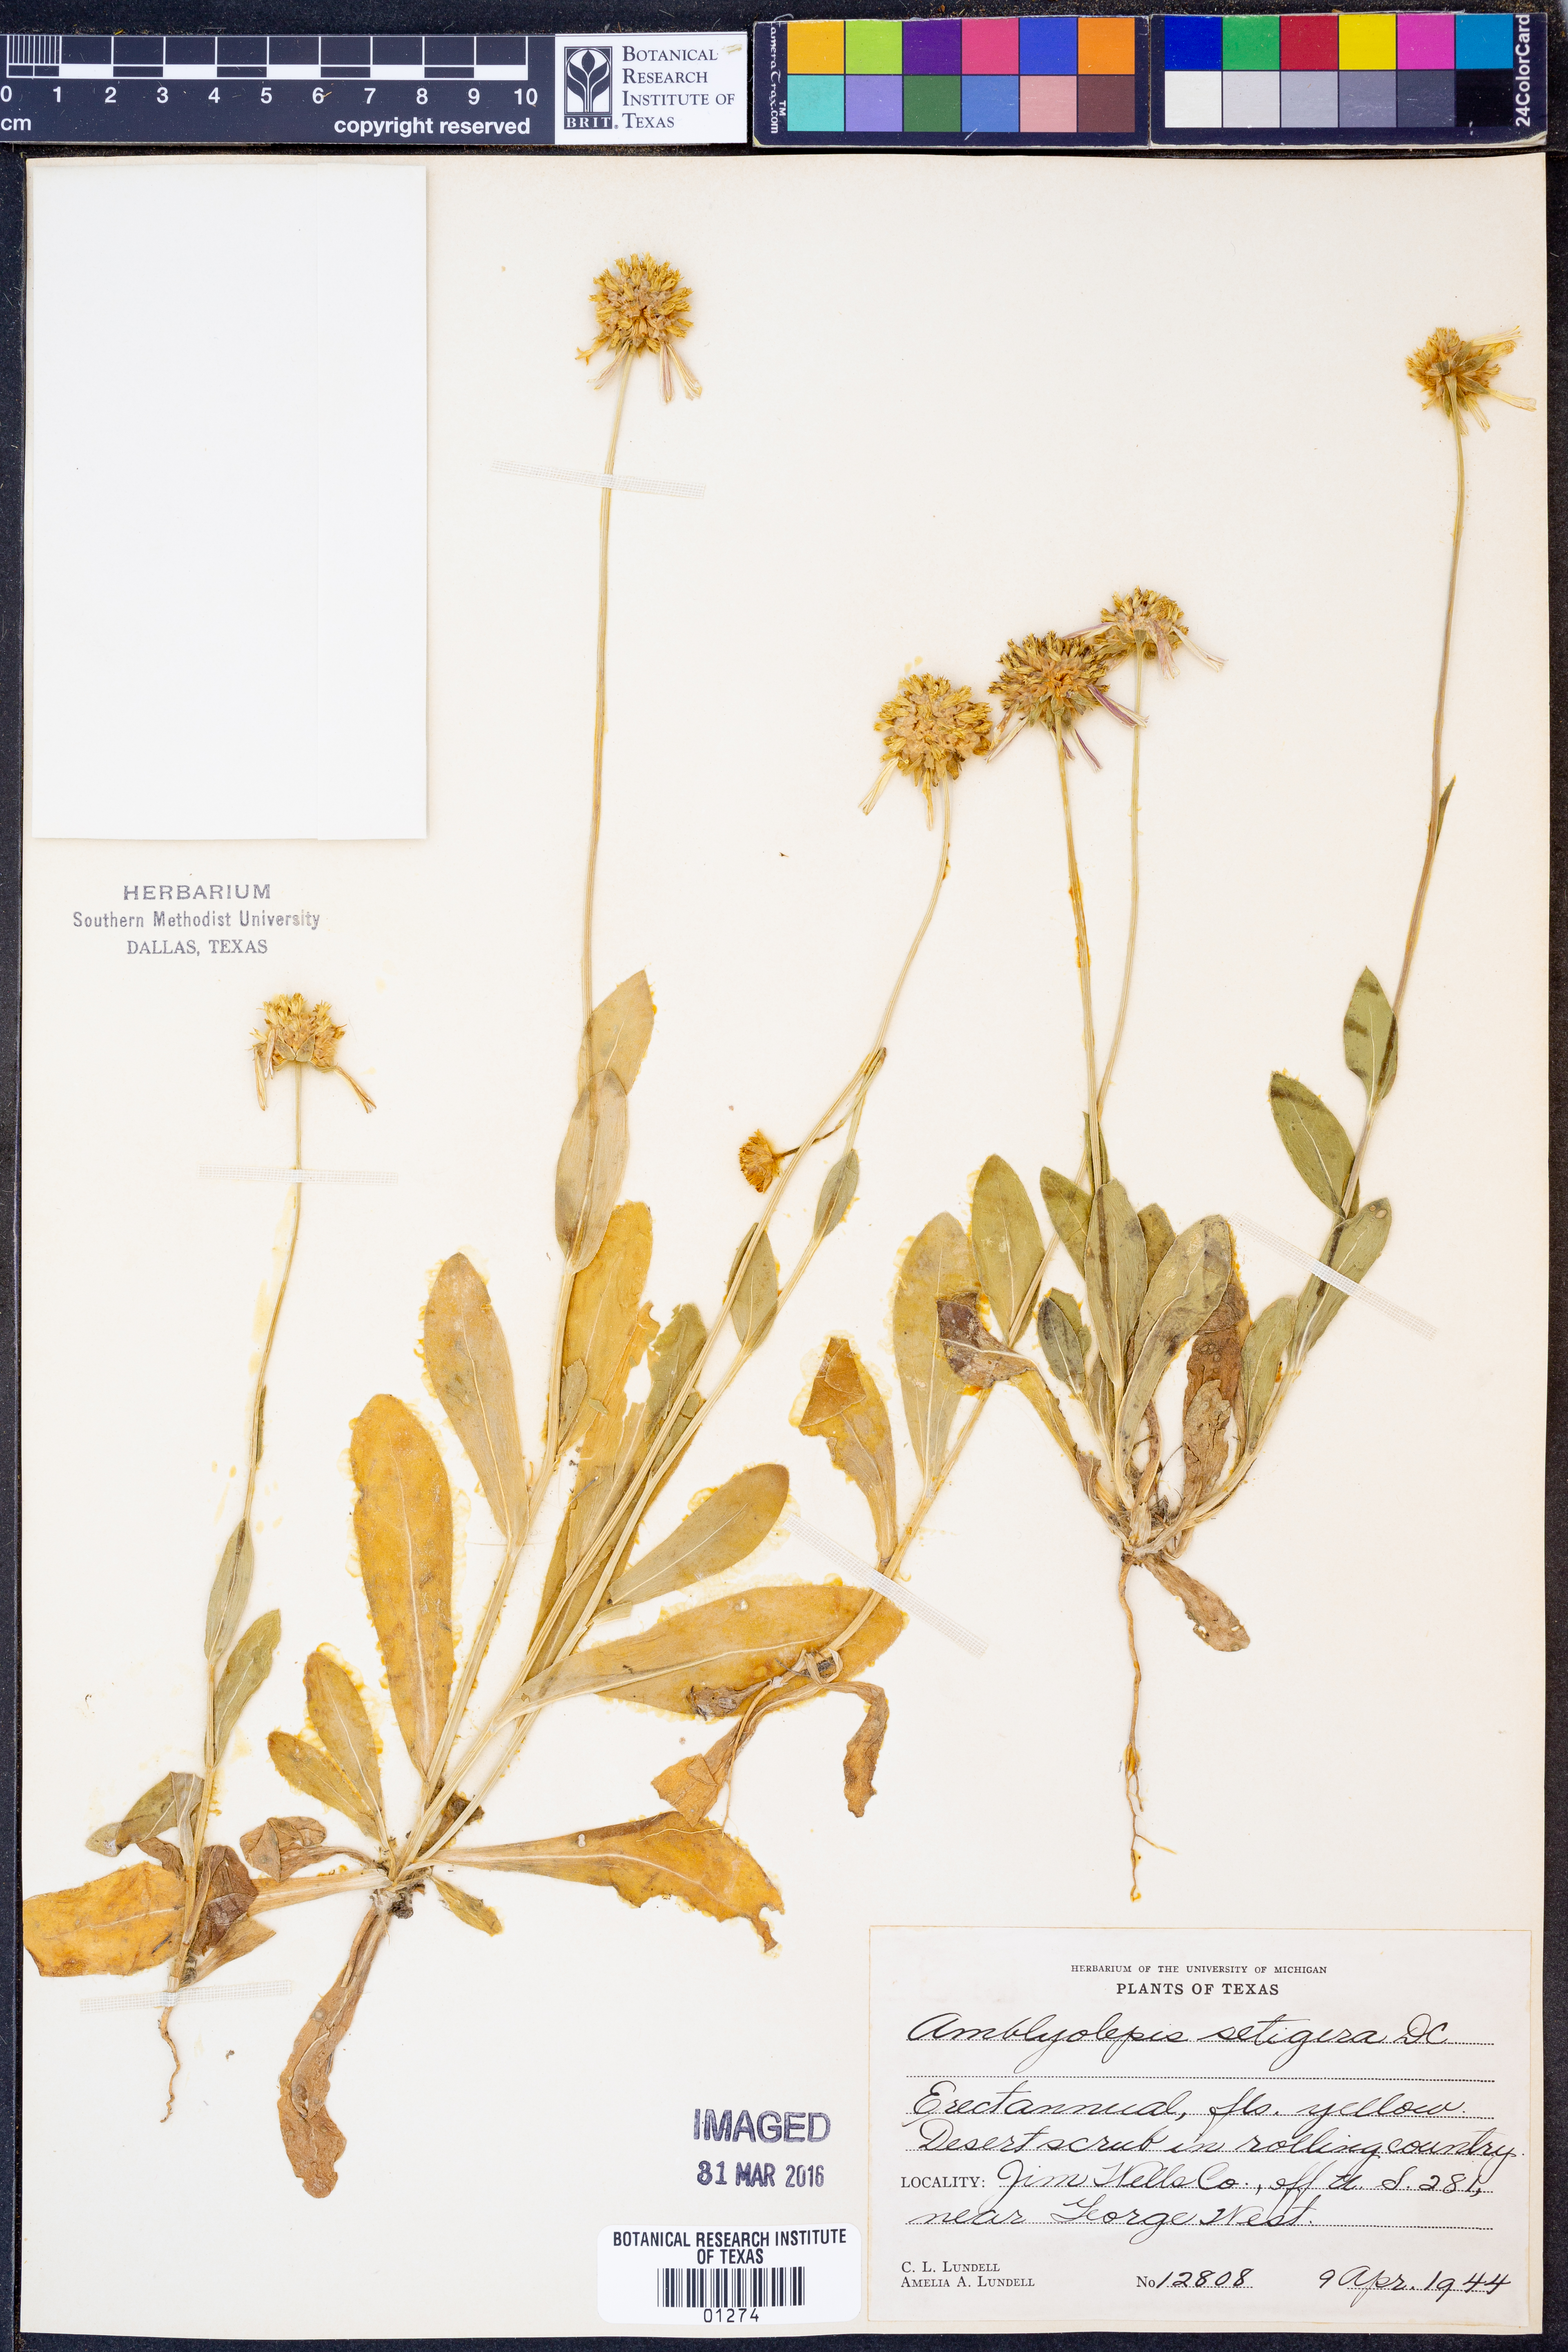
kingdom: Plantae
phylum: Tracheophyta
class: Magnoliopsida
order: Asterales
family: Asteraceae
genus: Amblyolepis
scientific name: Amblyolepis setigera
